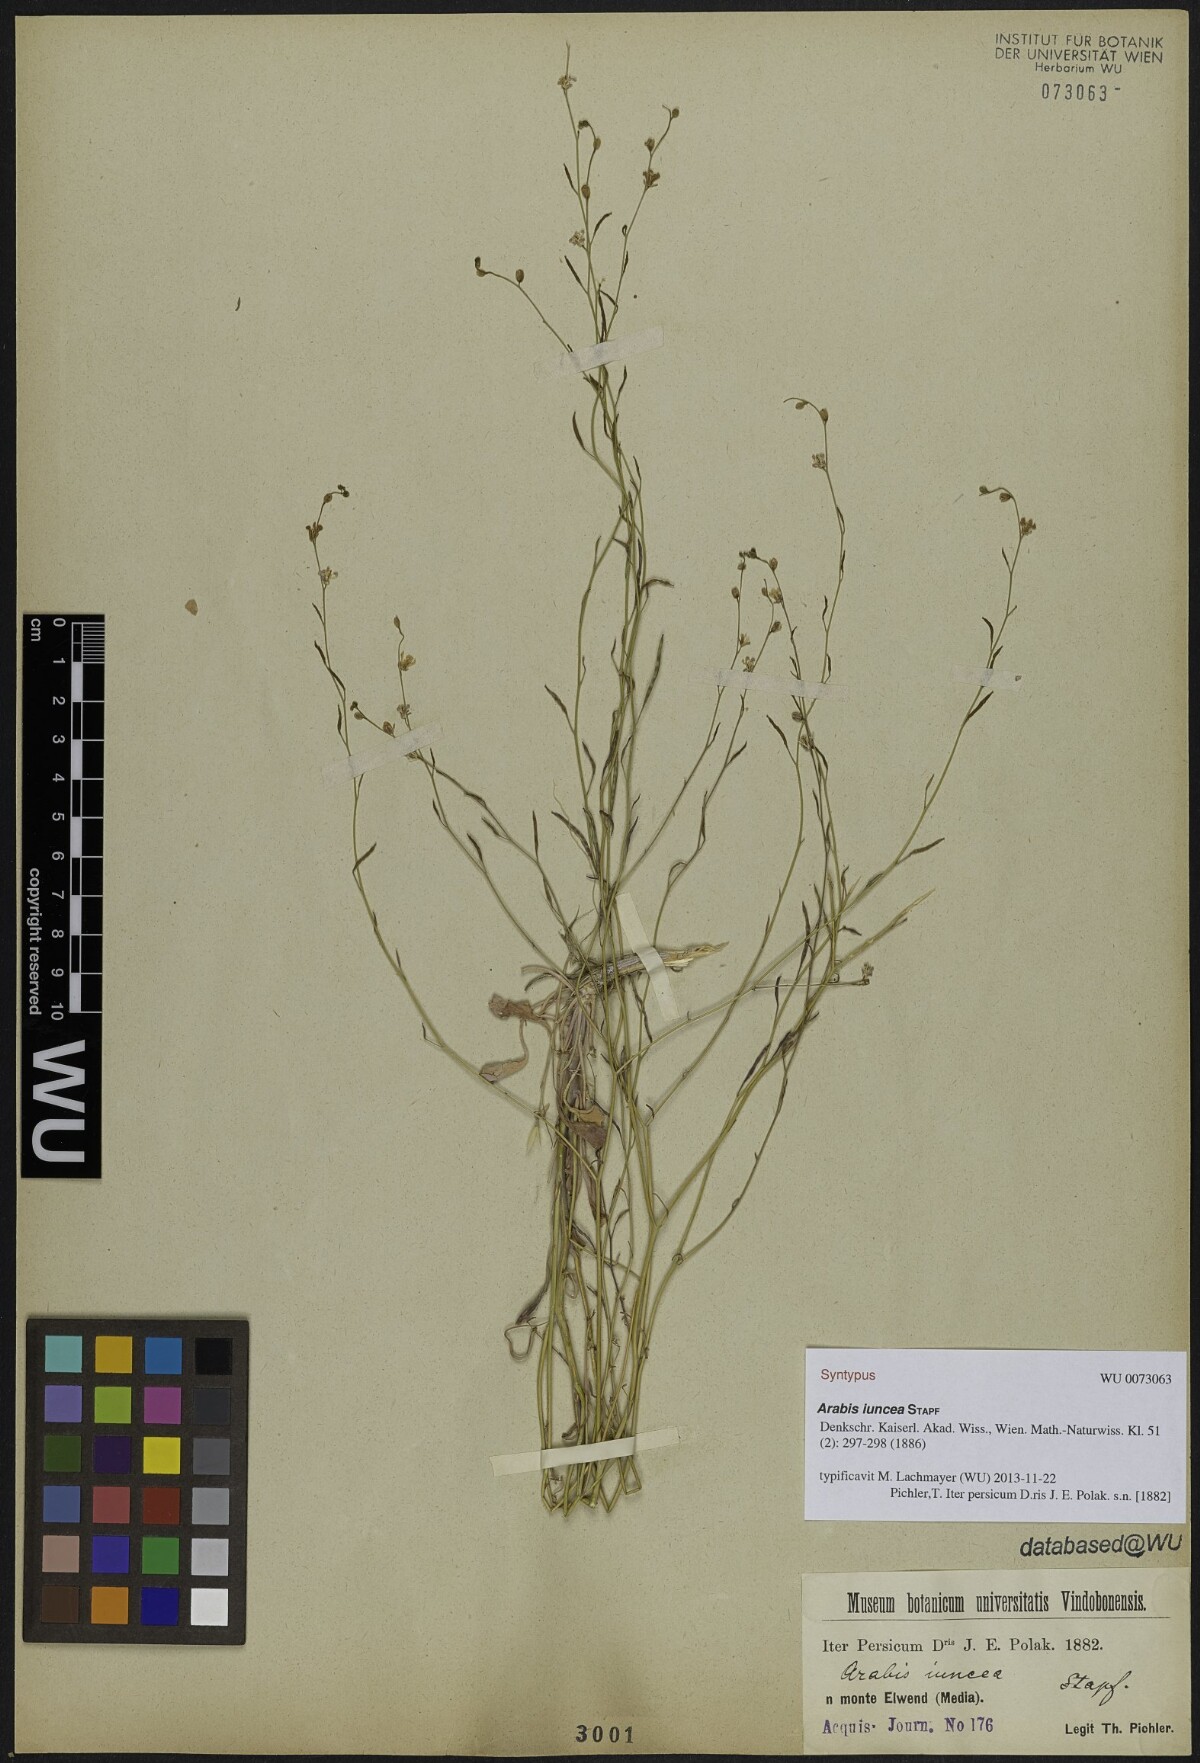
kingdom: Plantae
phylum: Tracheophyta
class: Magnoliopsida
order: Brassicales
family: Brassicaceae
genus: Arabis
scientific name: Arabis
